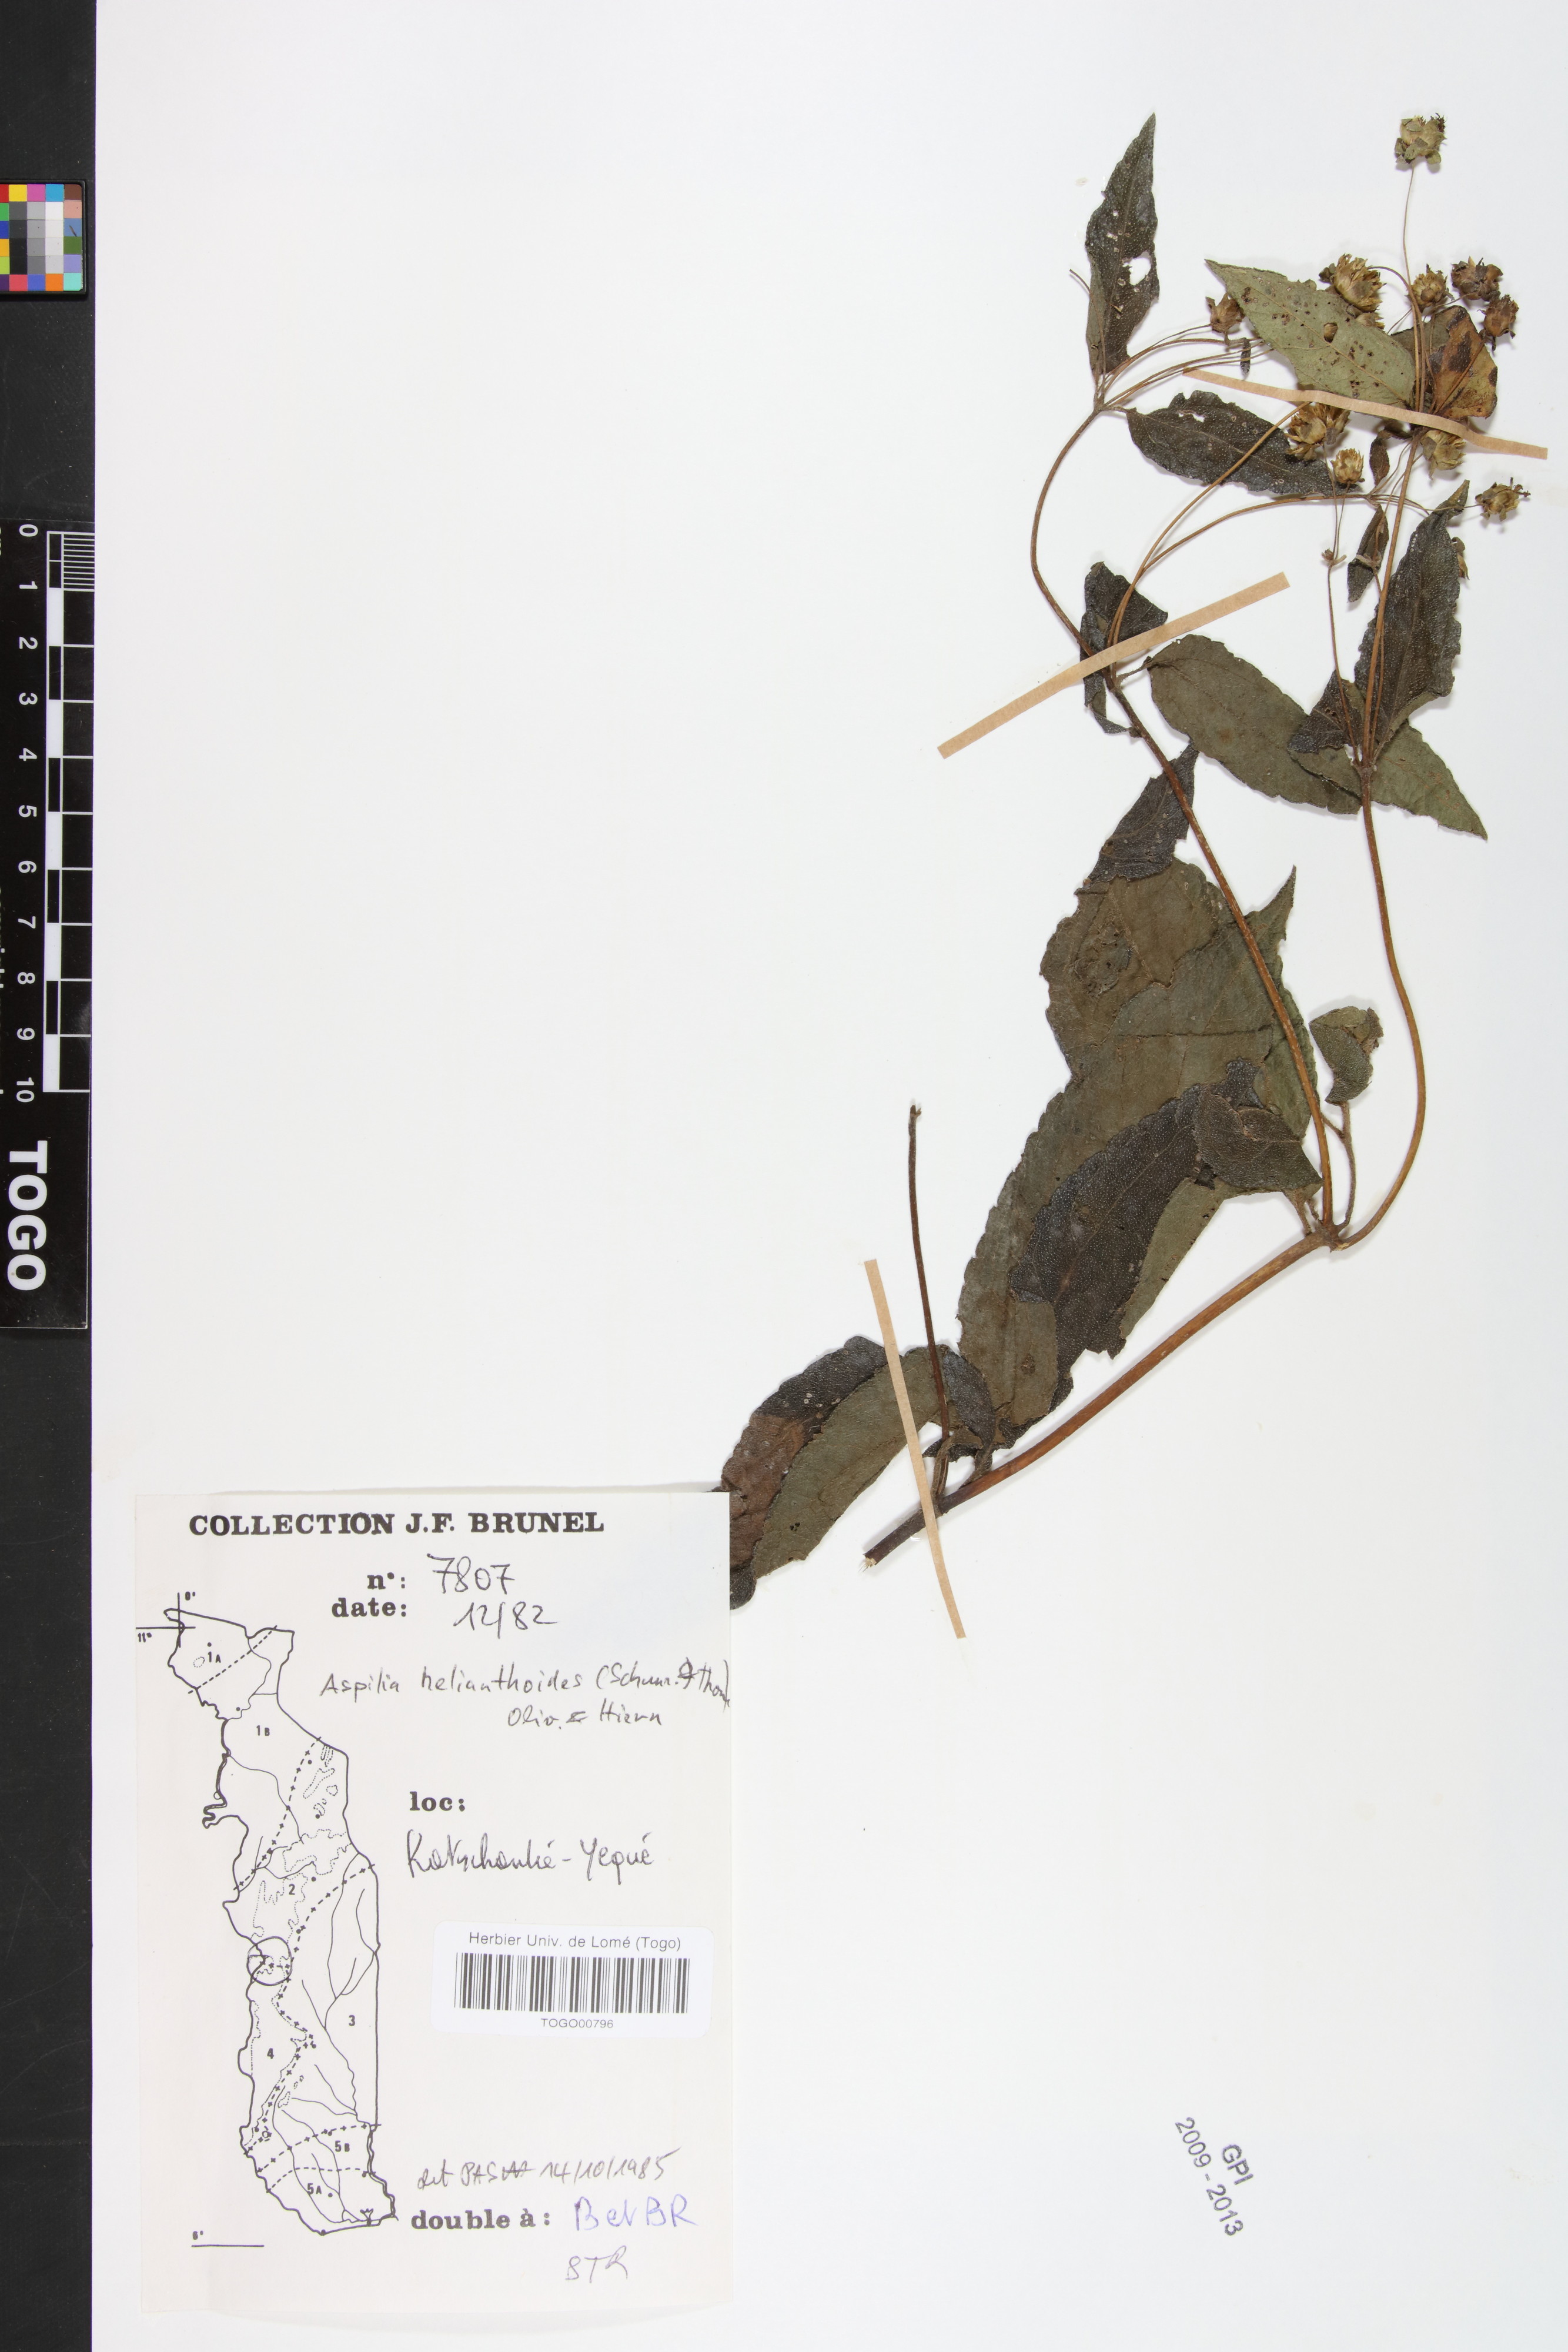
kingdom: Plantae
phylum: Tracheophyta
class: Magnoliopsida
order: Asterales
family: Asteraceae
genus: Aspilia
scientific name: Aspilia helianthoides
